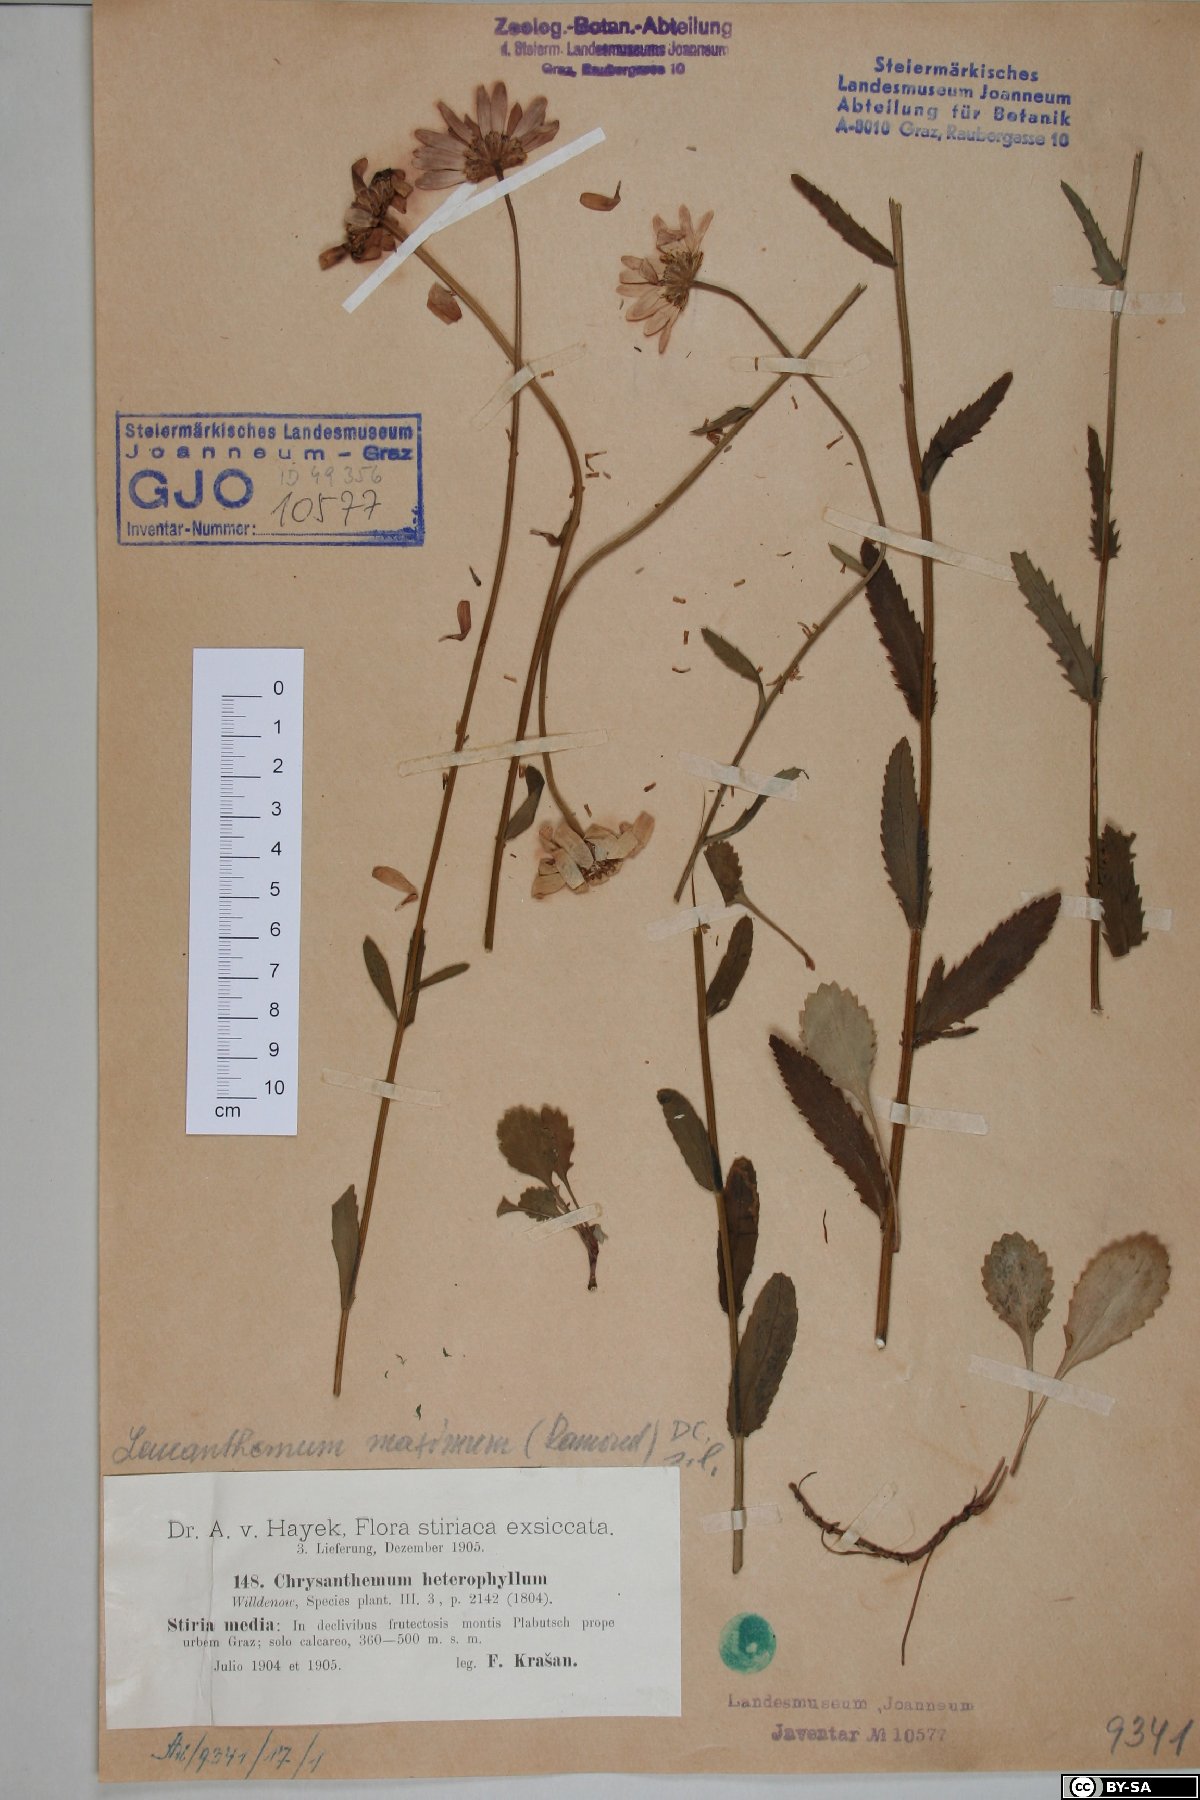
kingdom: Plantae
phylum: Tracheophyta
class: Magnoliopsida
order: Asterales
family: Asteraceae
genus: Leucanthemum
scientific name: Leucanthemum heterophyllum
